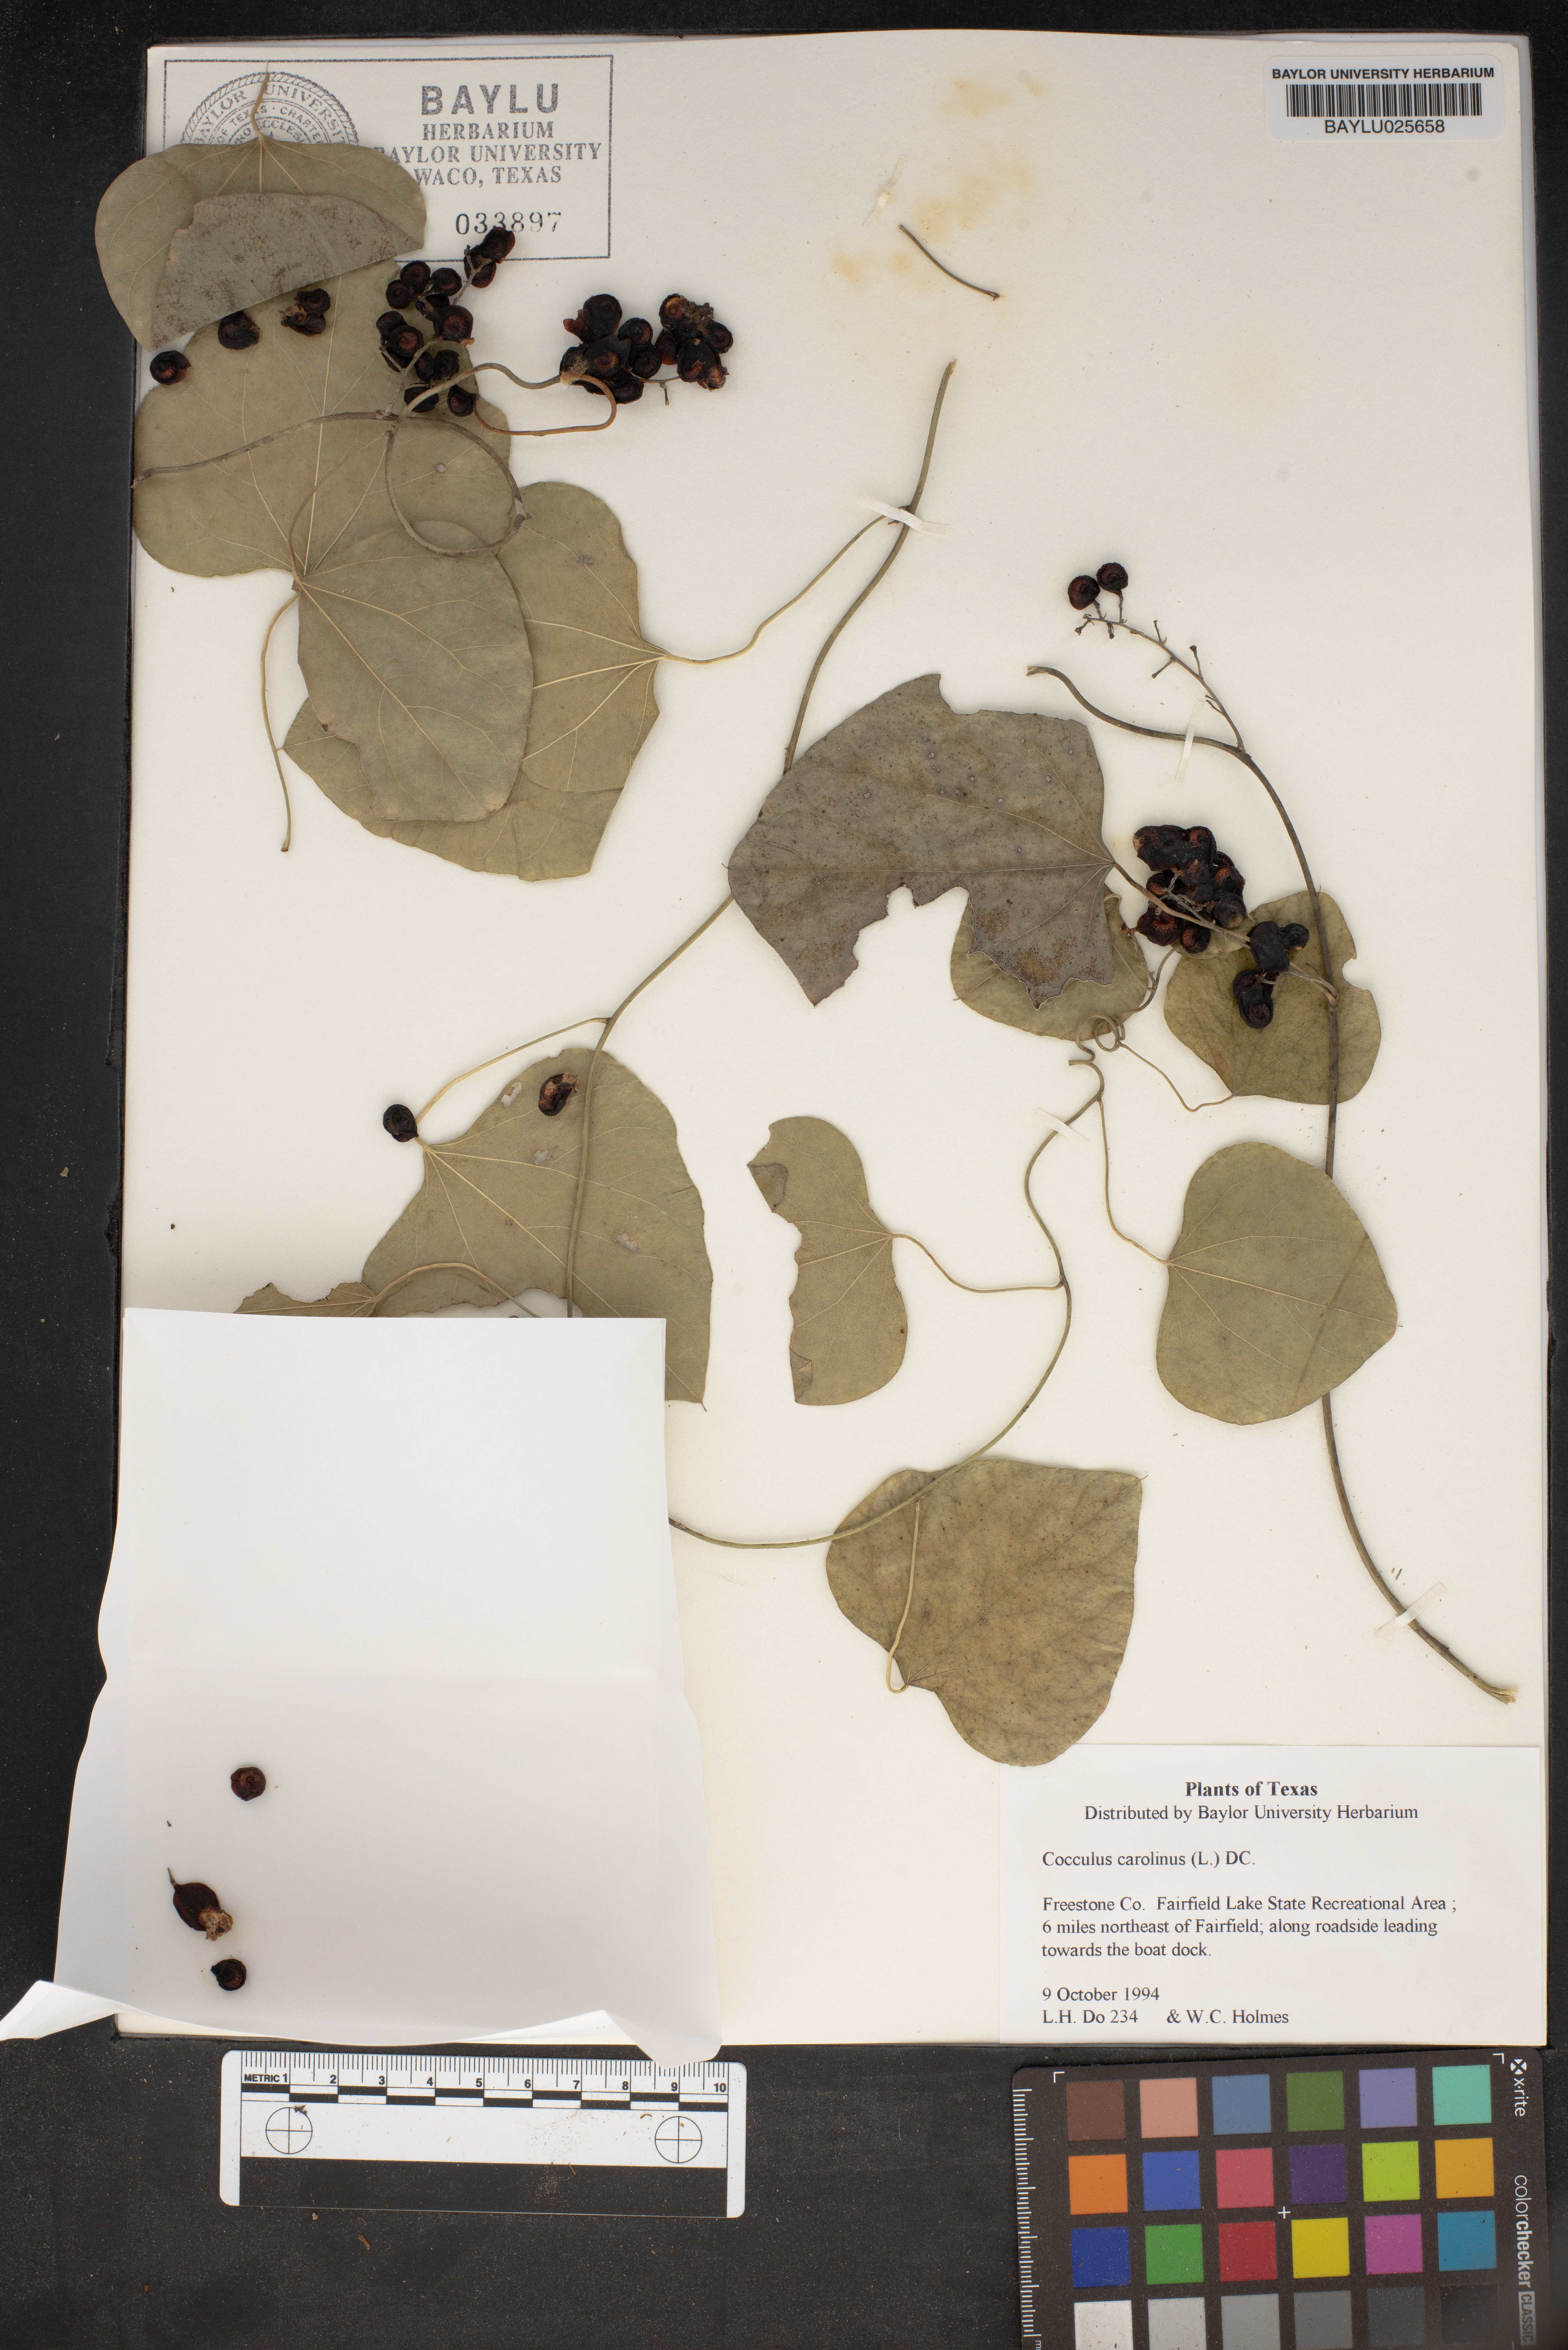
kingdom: Plantae
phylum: Tracheophyta
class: Magnoliopsida
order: Ranunculales
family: Menispermaceae
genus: Cocculus
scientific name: Cocculus carolinus
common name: Carolina moonseed
